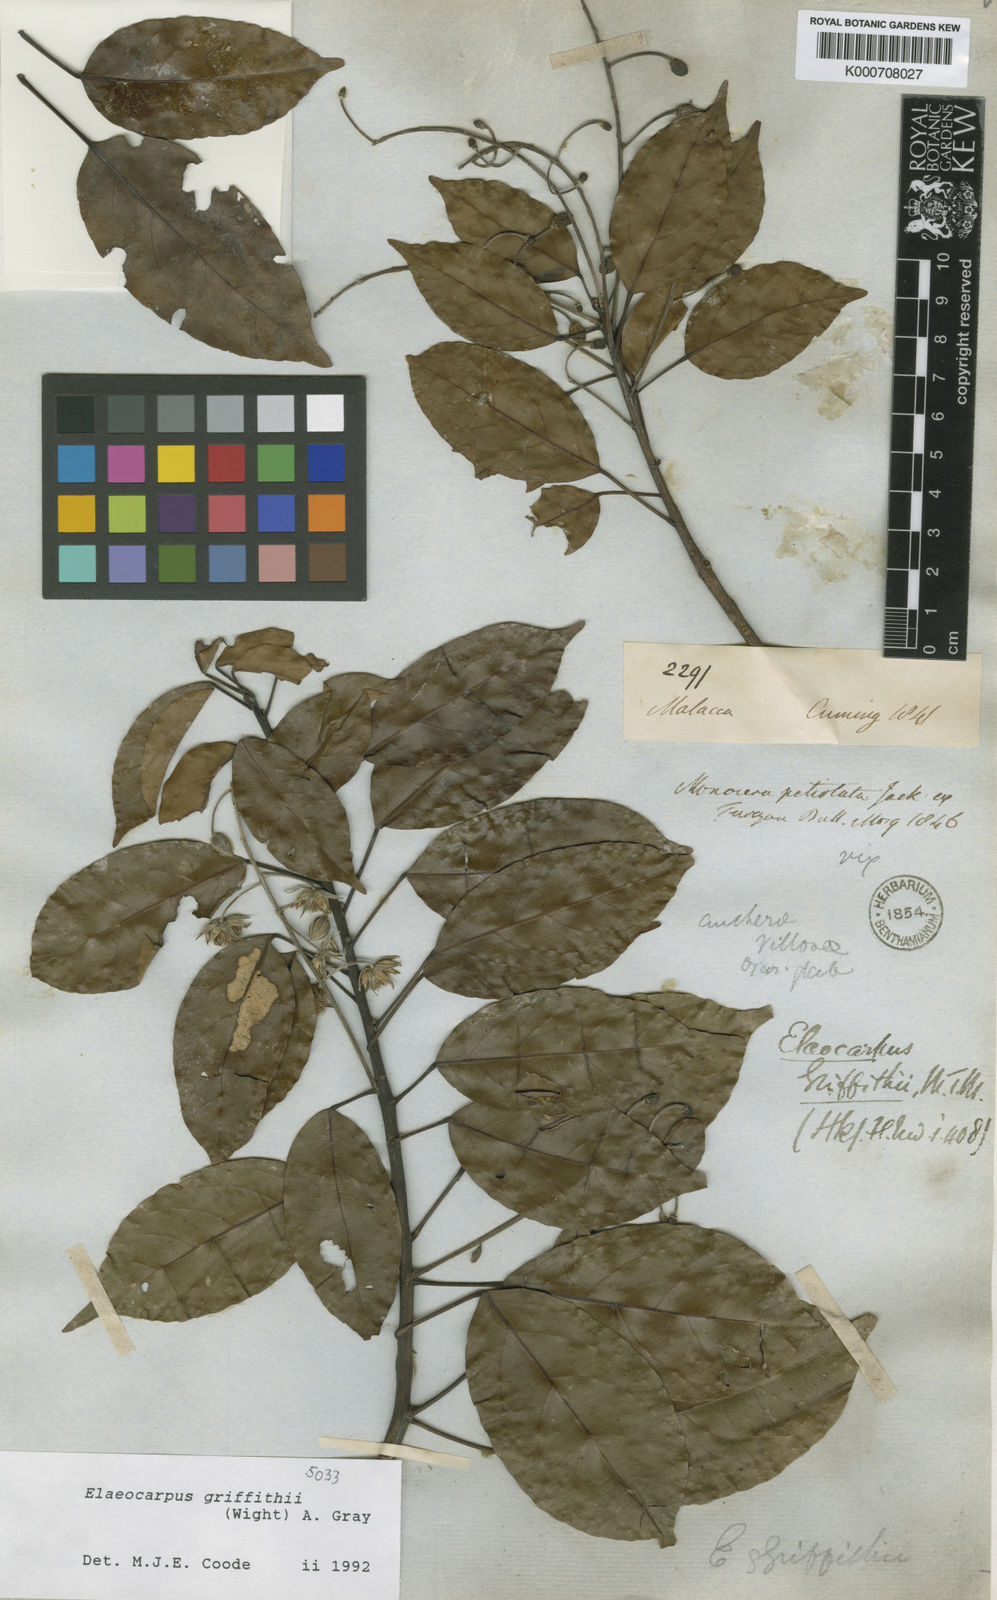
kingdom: Plantae
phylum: Tracheophyta
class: Magnoliopsida
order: Oxalidales
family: Elaeocarpaceae
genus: Elaeocarpus
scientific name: Elaeocarpus griffithii
